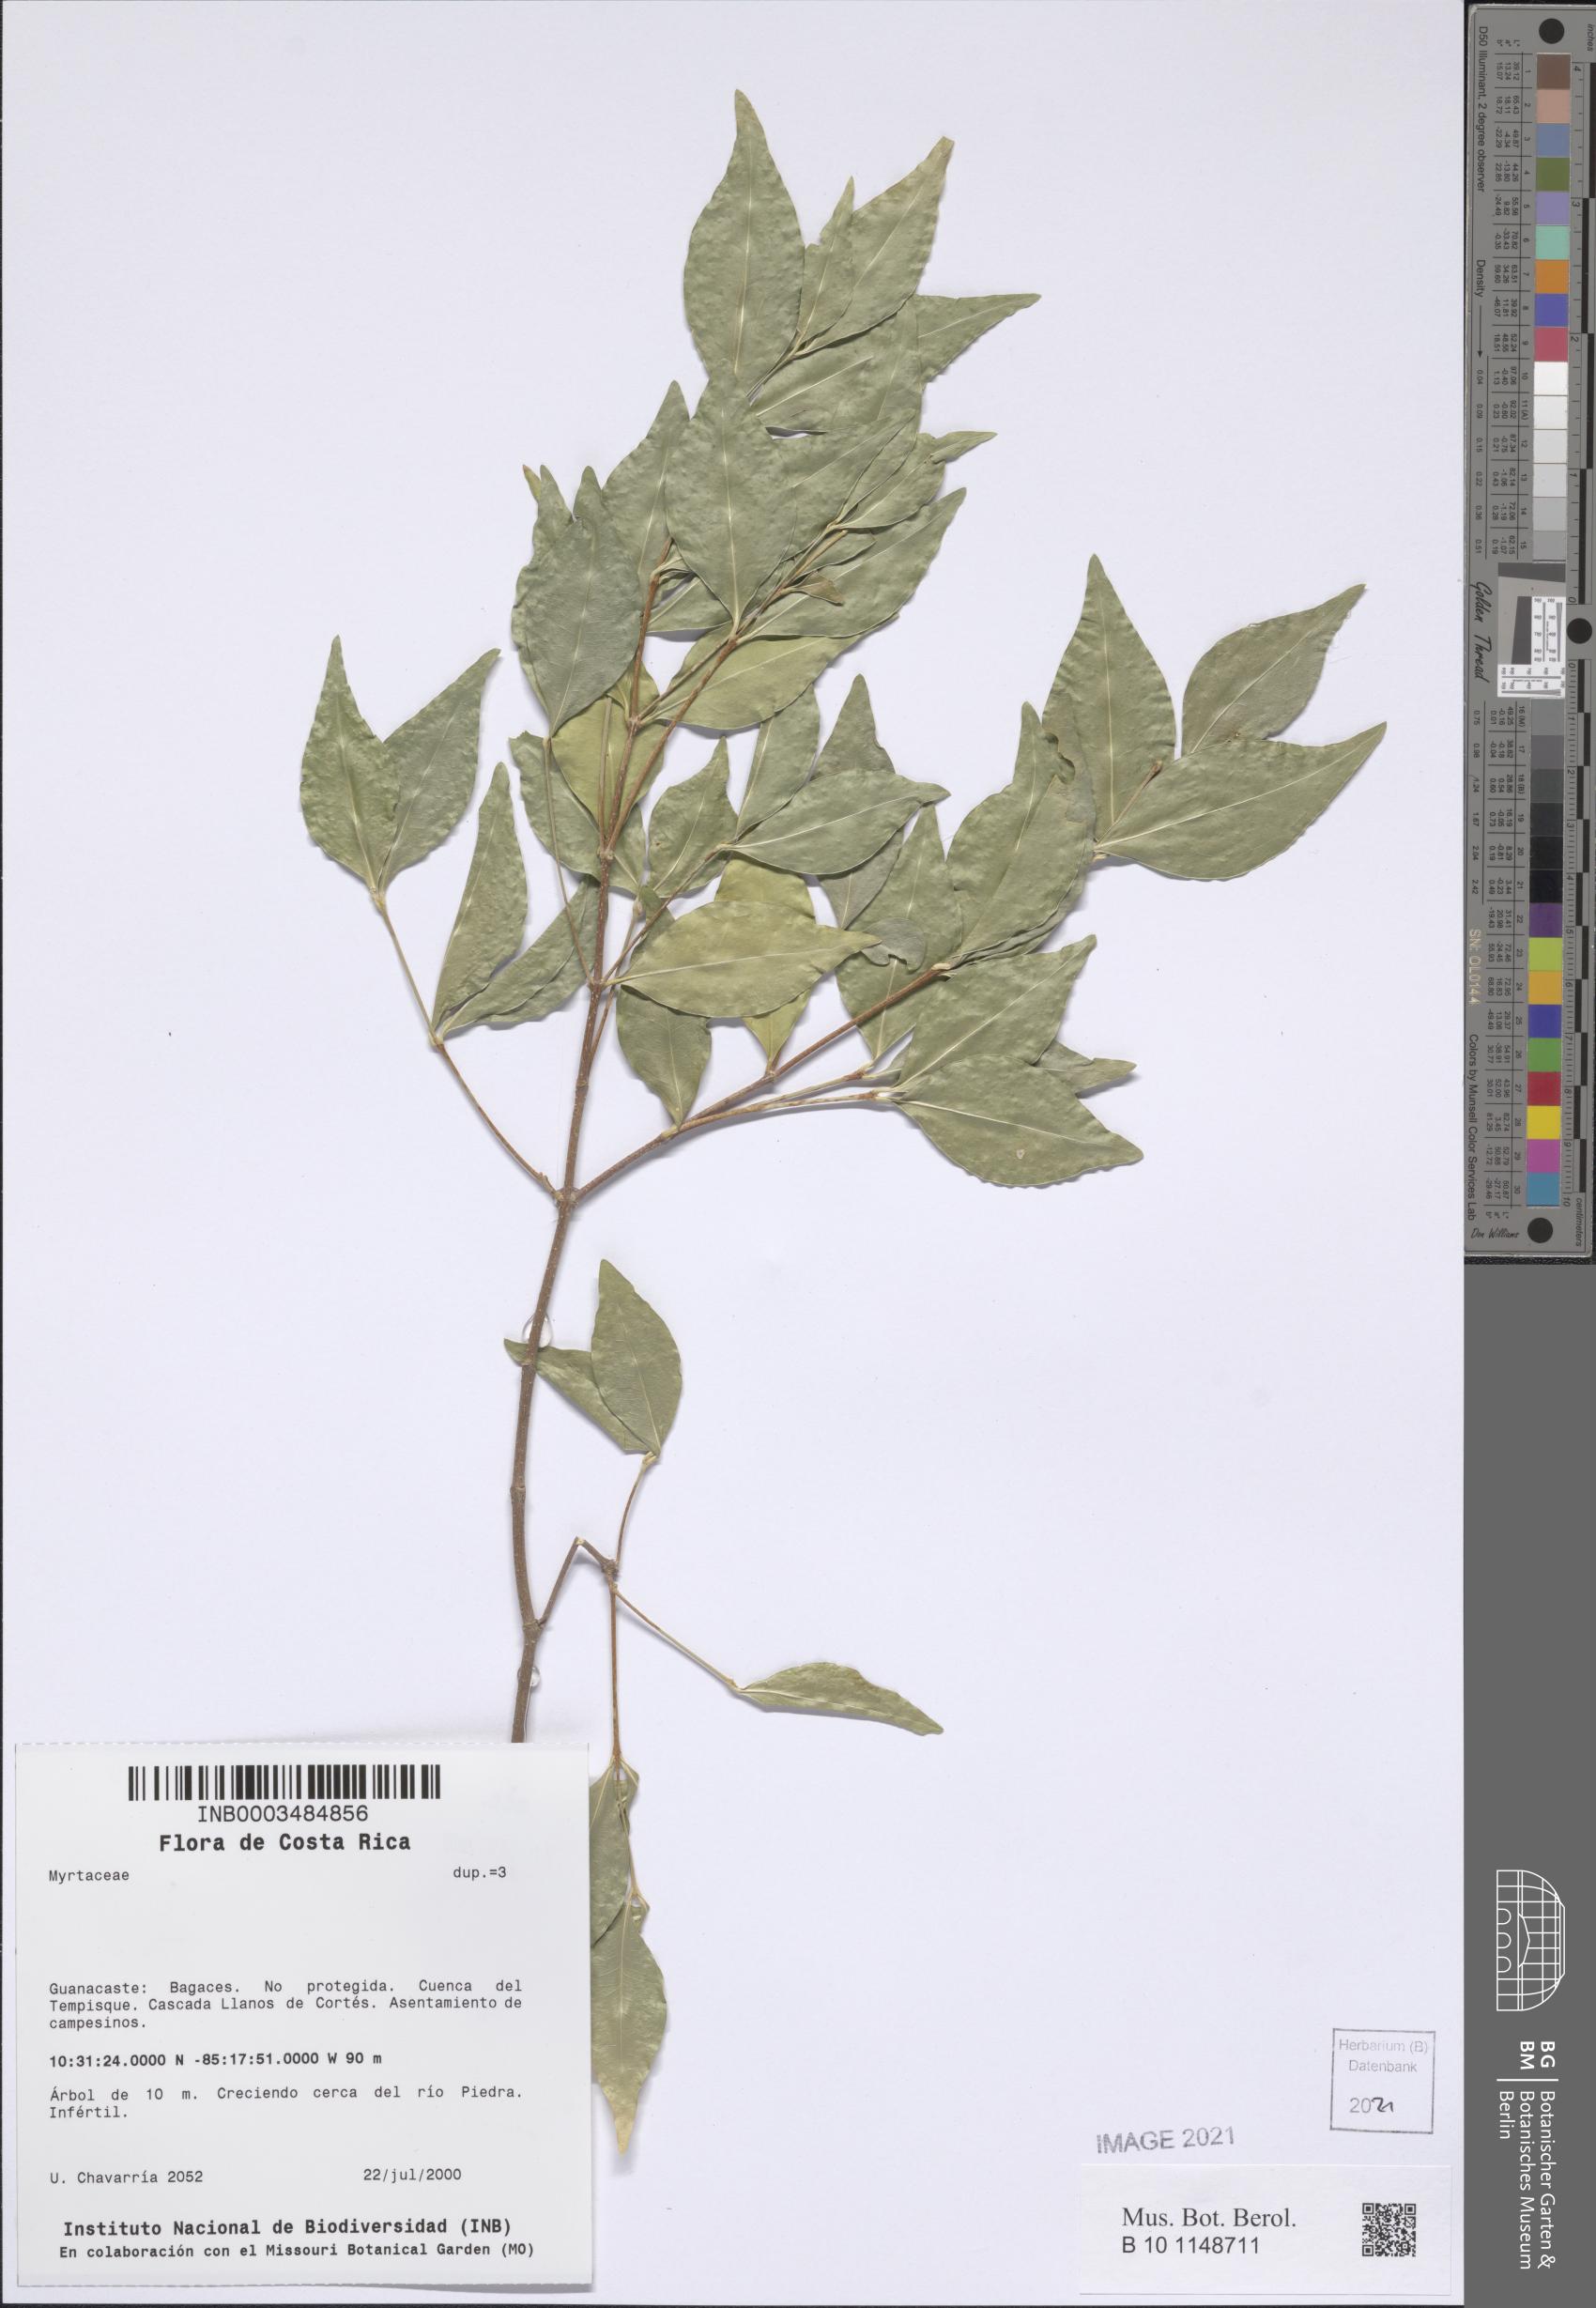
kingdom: Plantae
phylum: Tracheophyta
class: Magnoliopsida
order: Myrtales
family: Myrtaceae
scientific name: Myrtaceae
